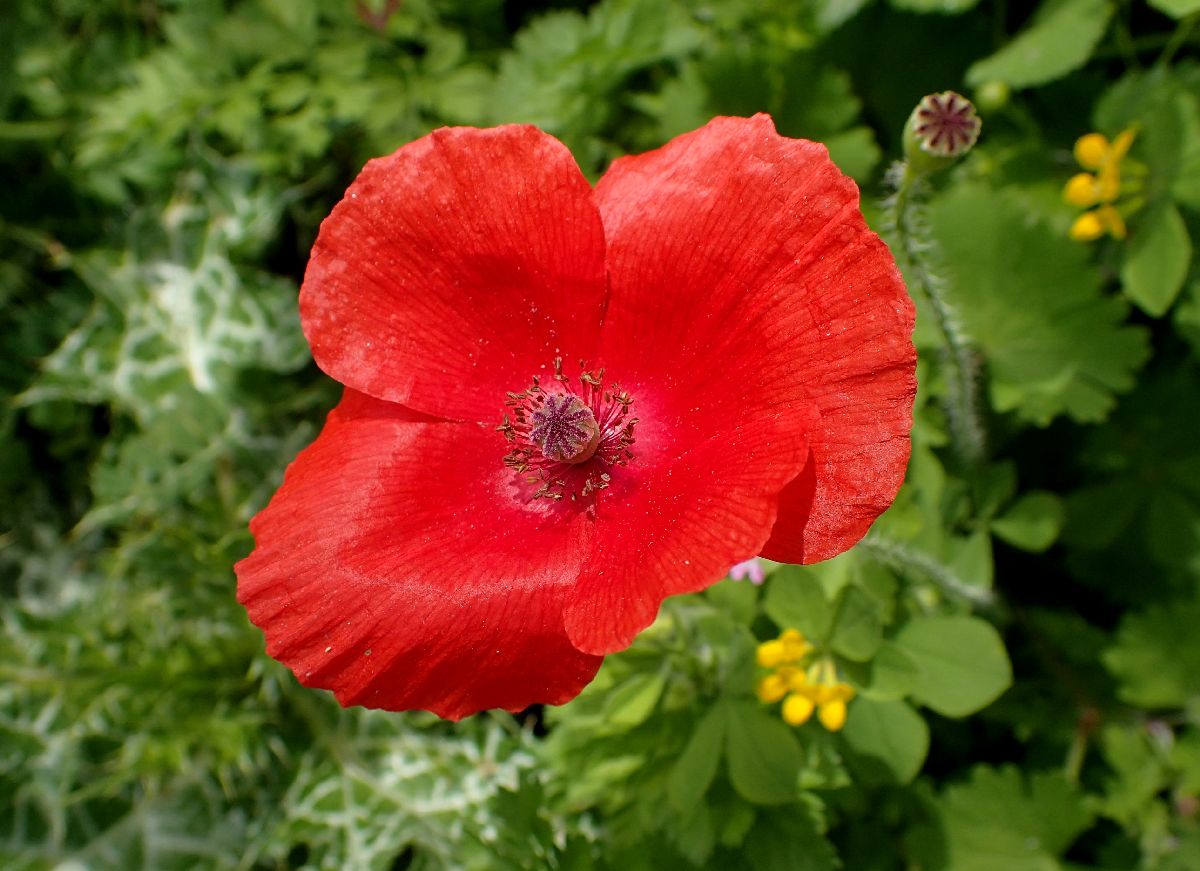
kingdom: Plantae
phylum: Tracheophyta
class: Magnoliopsida
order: Ranunculales
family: Papaveraceae
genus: Papaver
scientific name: Papaver dubium
